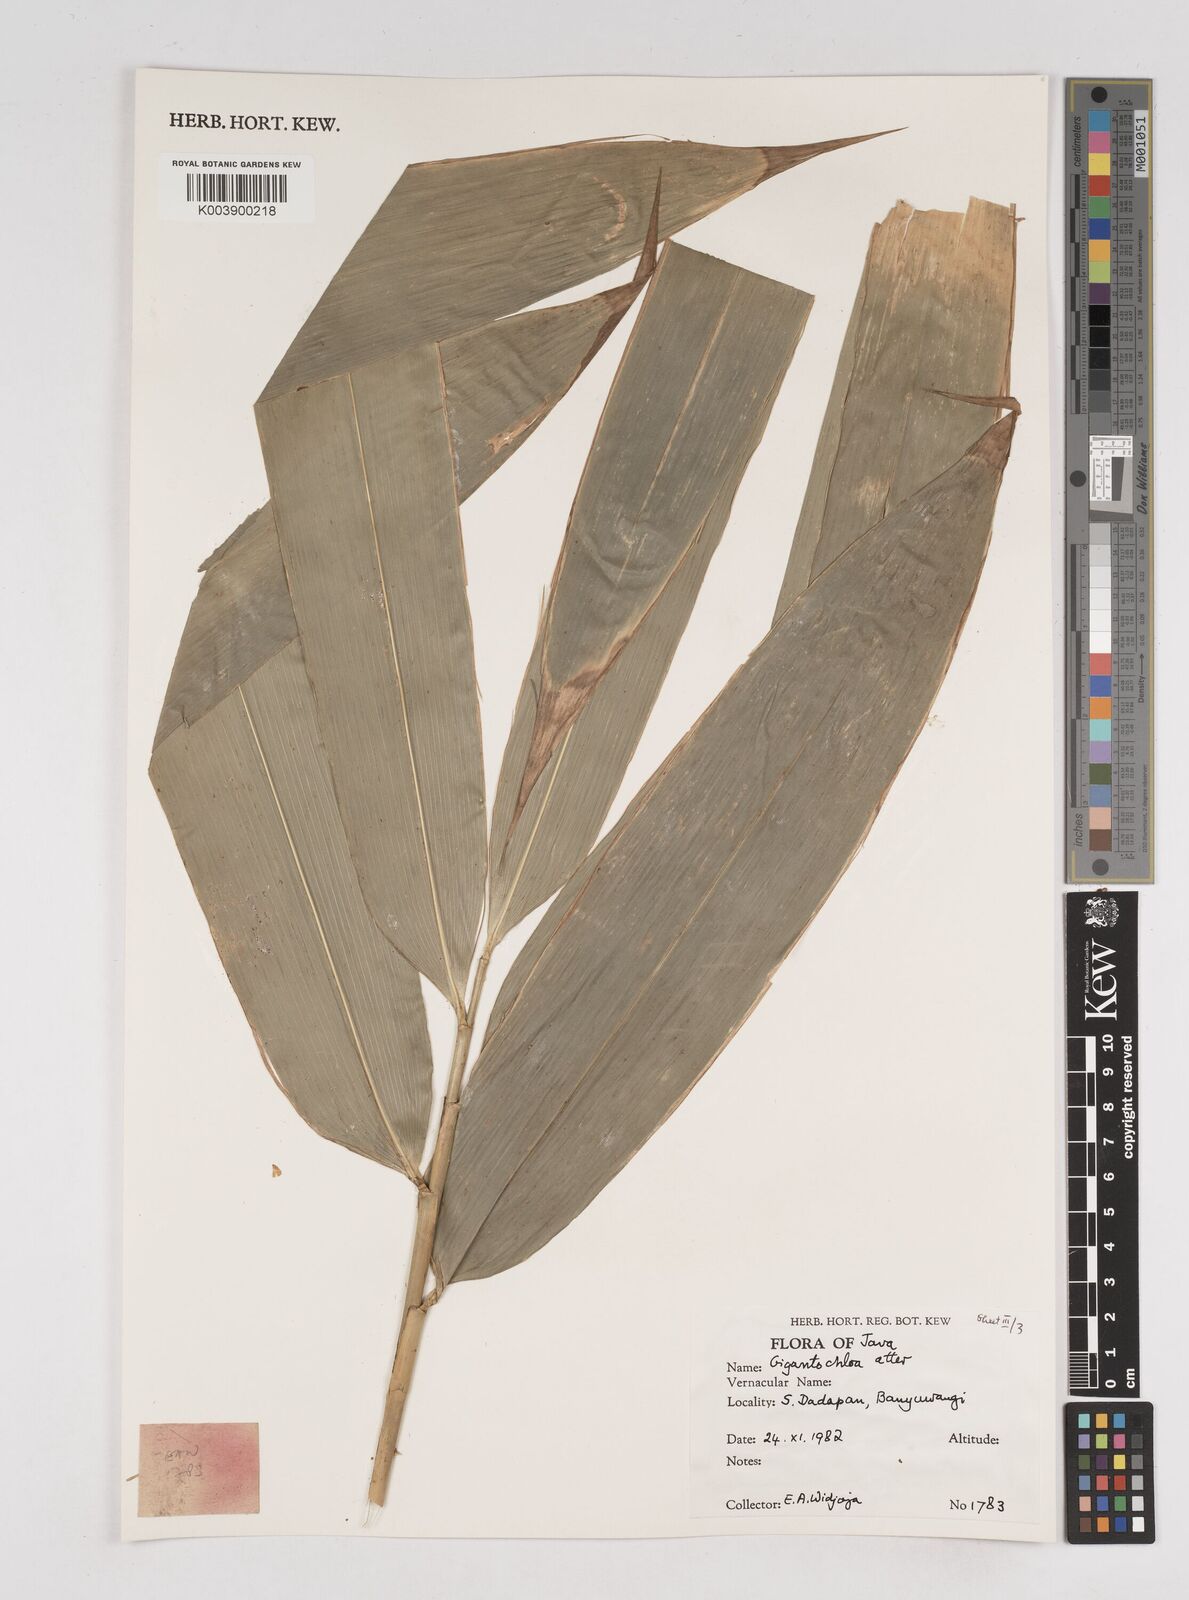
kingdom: Plantae
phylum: Tracheophyta
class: Liliopsida
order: Poales
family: Poaceae
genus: Gigantochloa
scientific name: Gigantochloa atter
